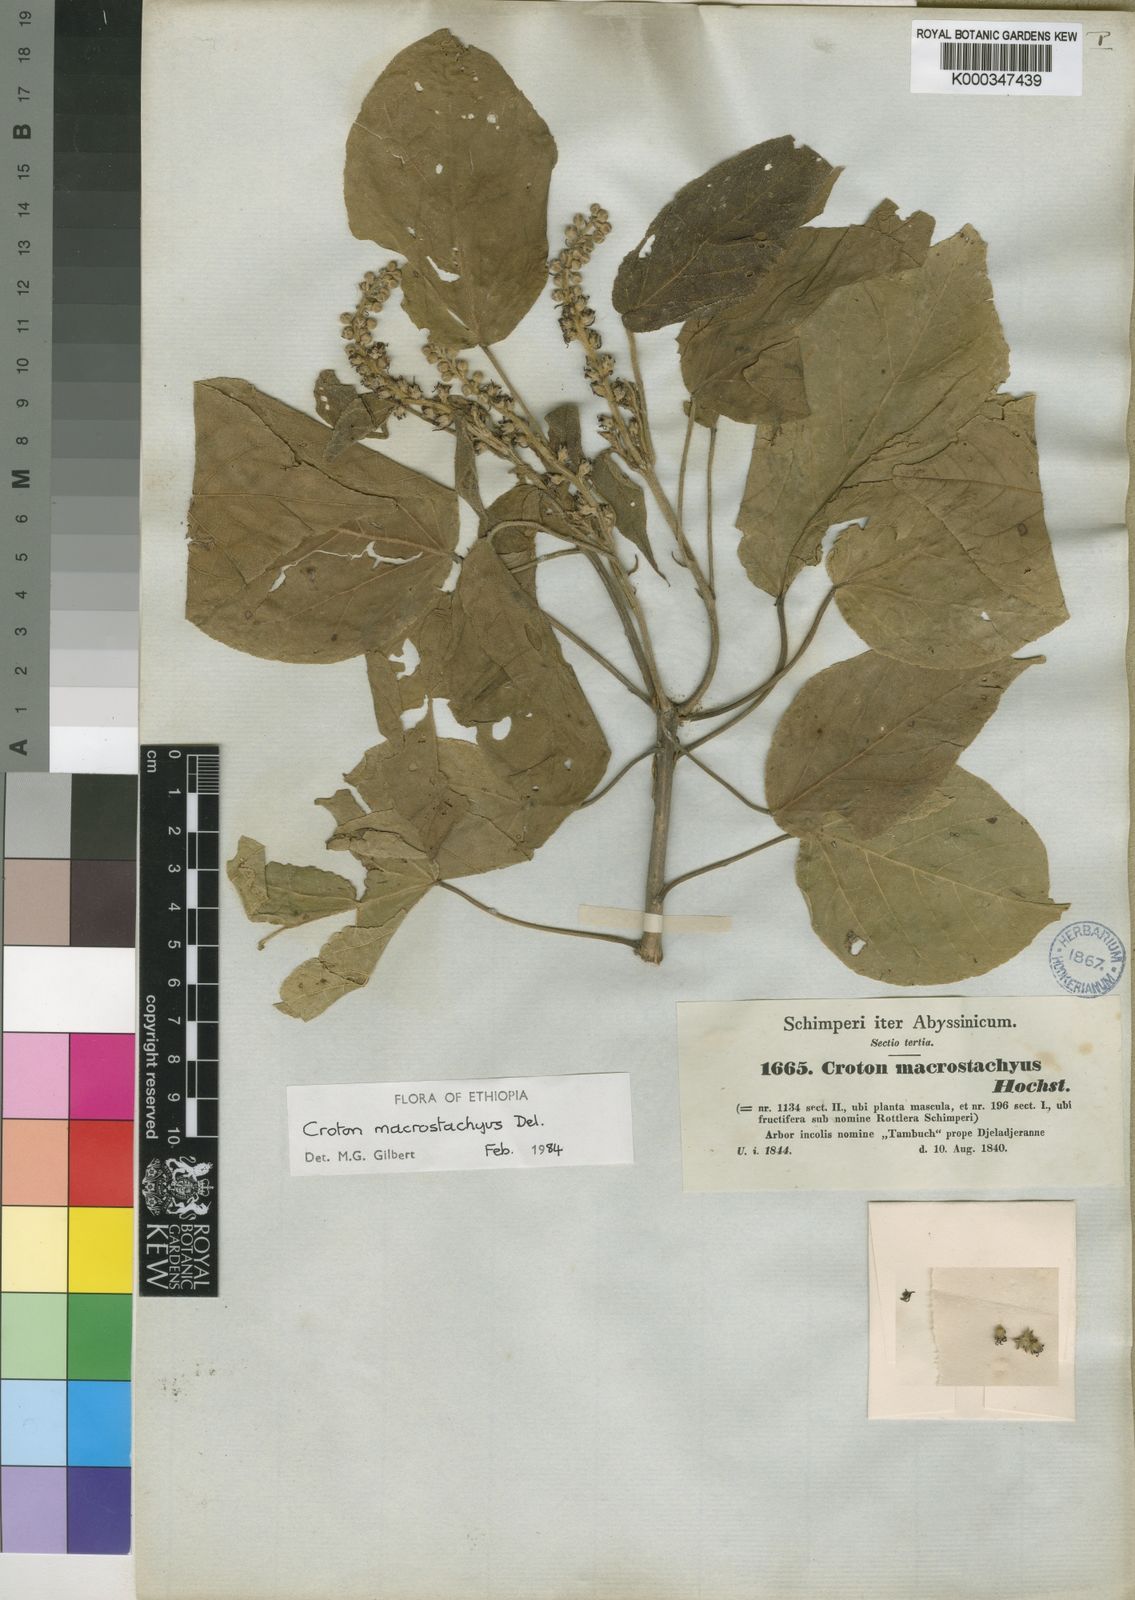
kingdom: Plantae
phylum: Tracheophyta
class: Magnoliopsida
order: Malpighiales
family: Euphorbiaceae
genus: Croton
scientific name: Croton macrostachyus
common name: Mutundu
